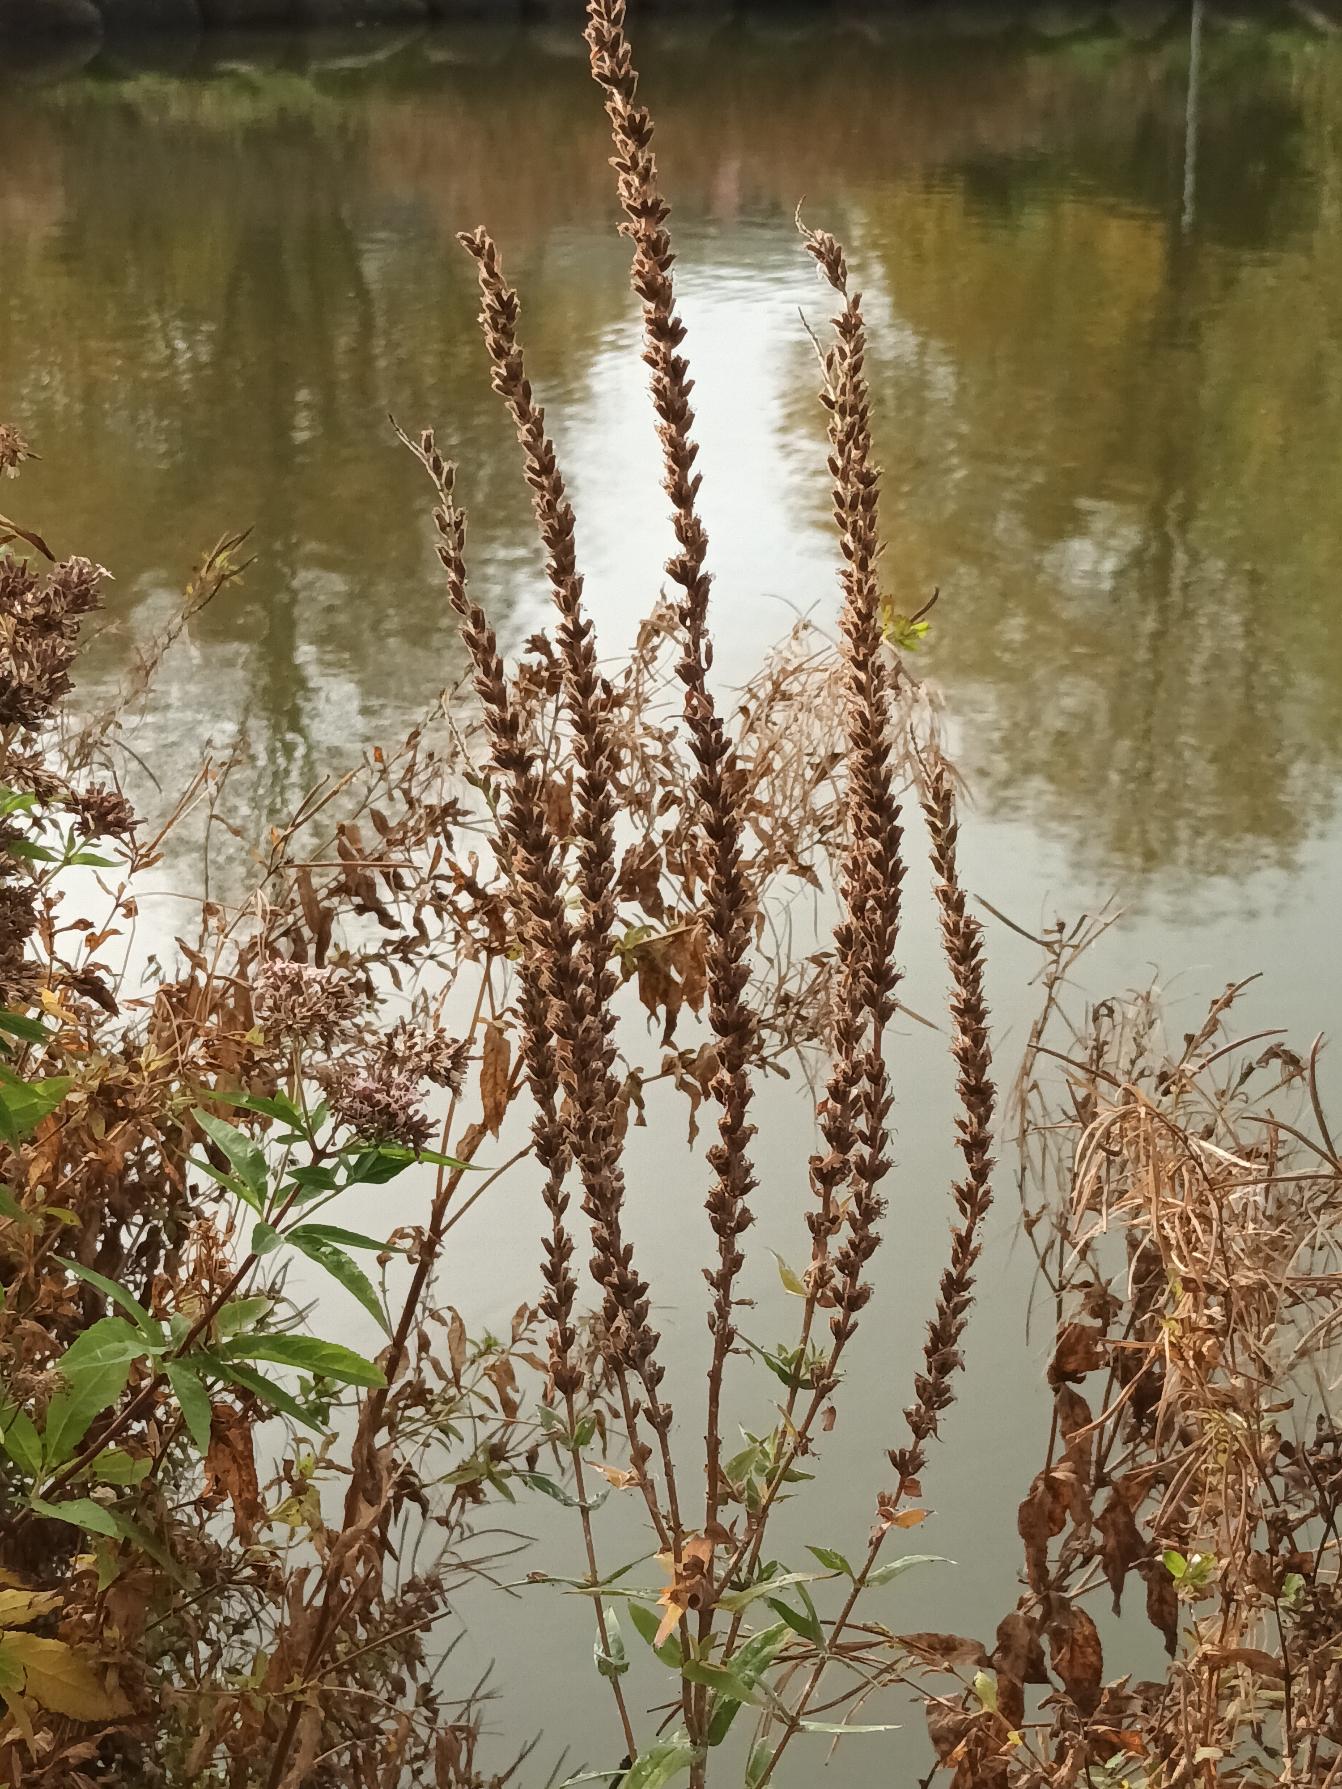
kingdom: Plantae
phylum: Tracheophyta
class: Magnoliopsida
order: Myrtales
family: Lythraceae
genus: Lythrum
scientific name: Lythrum salicaria
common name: Kattehale
